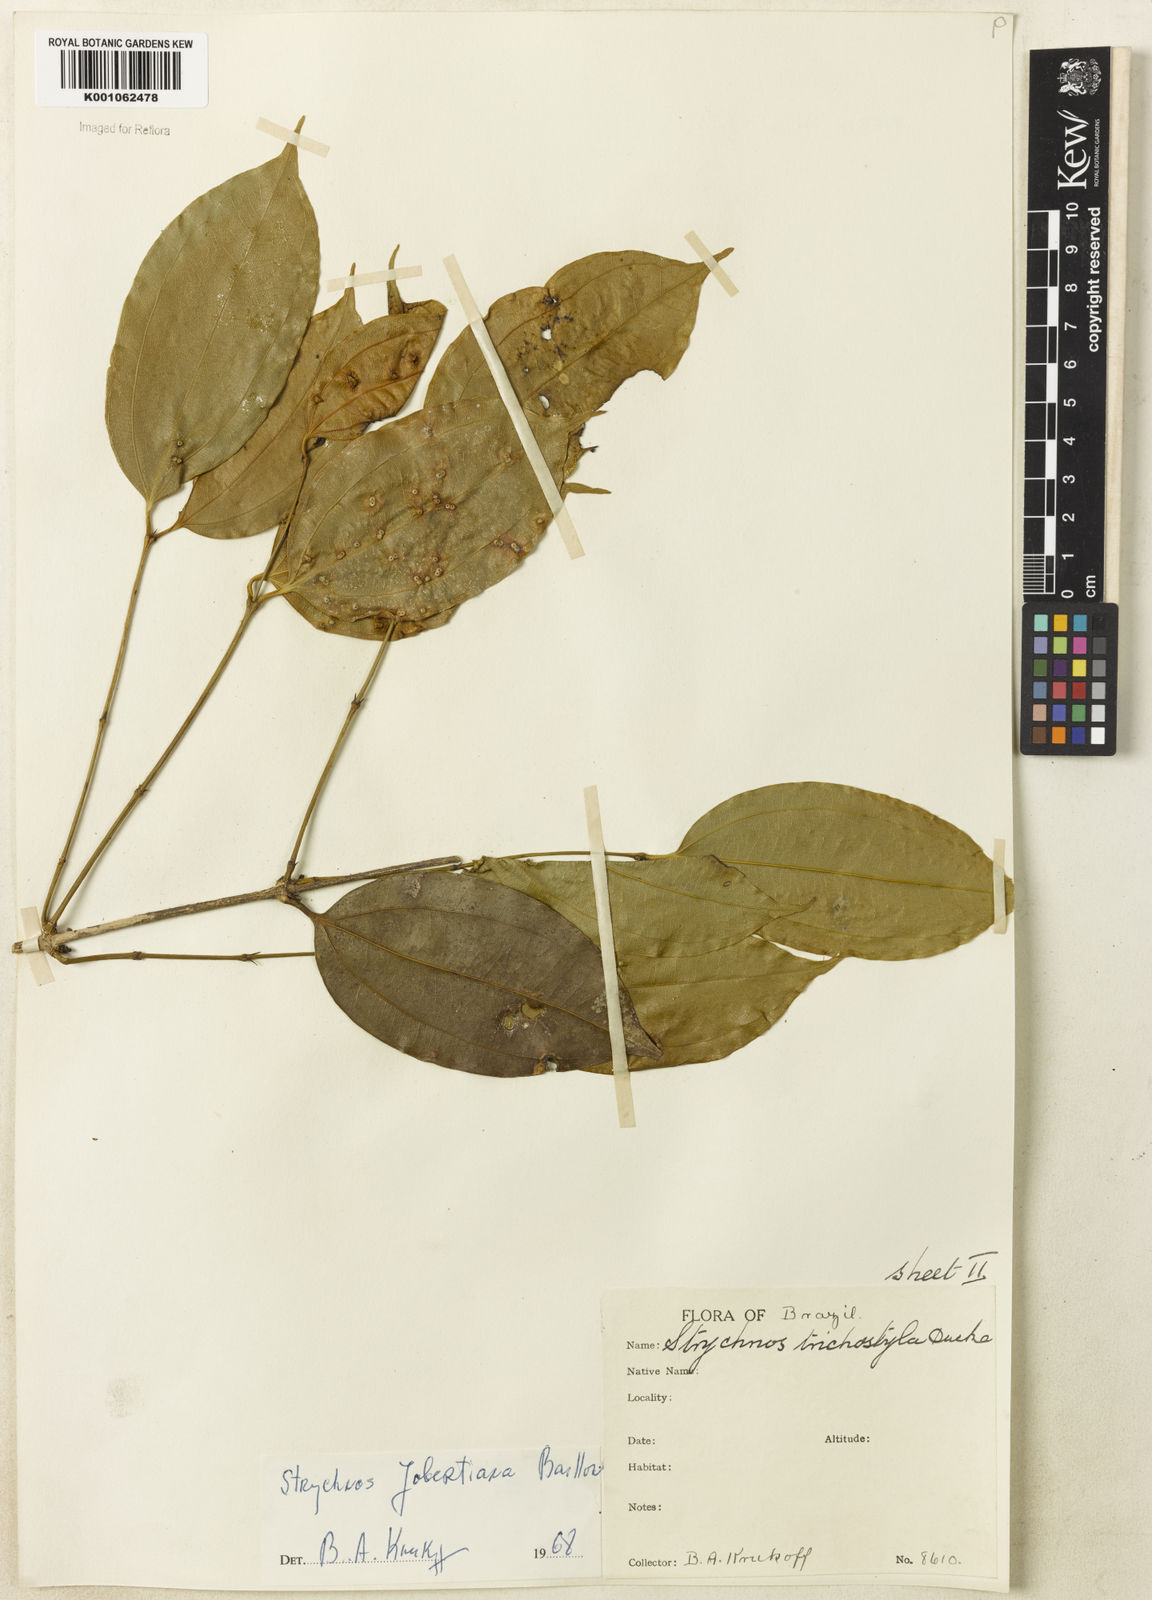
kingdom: Plantae
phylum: Tracheophyta
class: Magnoliopsida
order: Gentianales
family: Loganiaceae
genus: Strychnos
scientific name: Strychnos jobertiana
